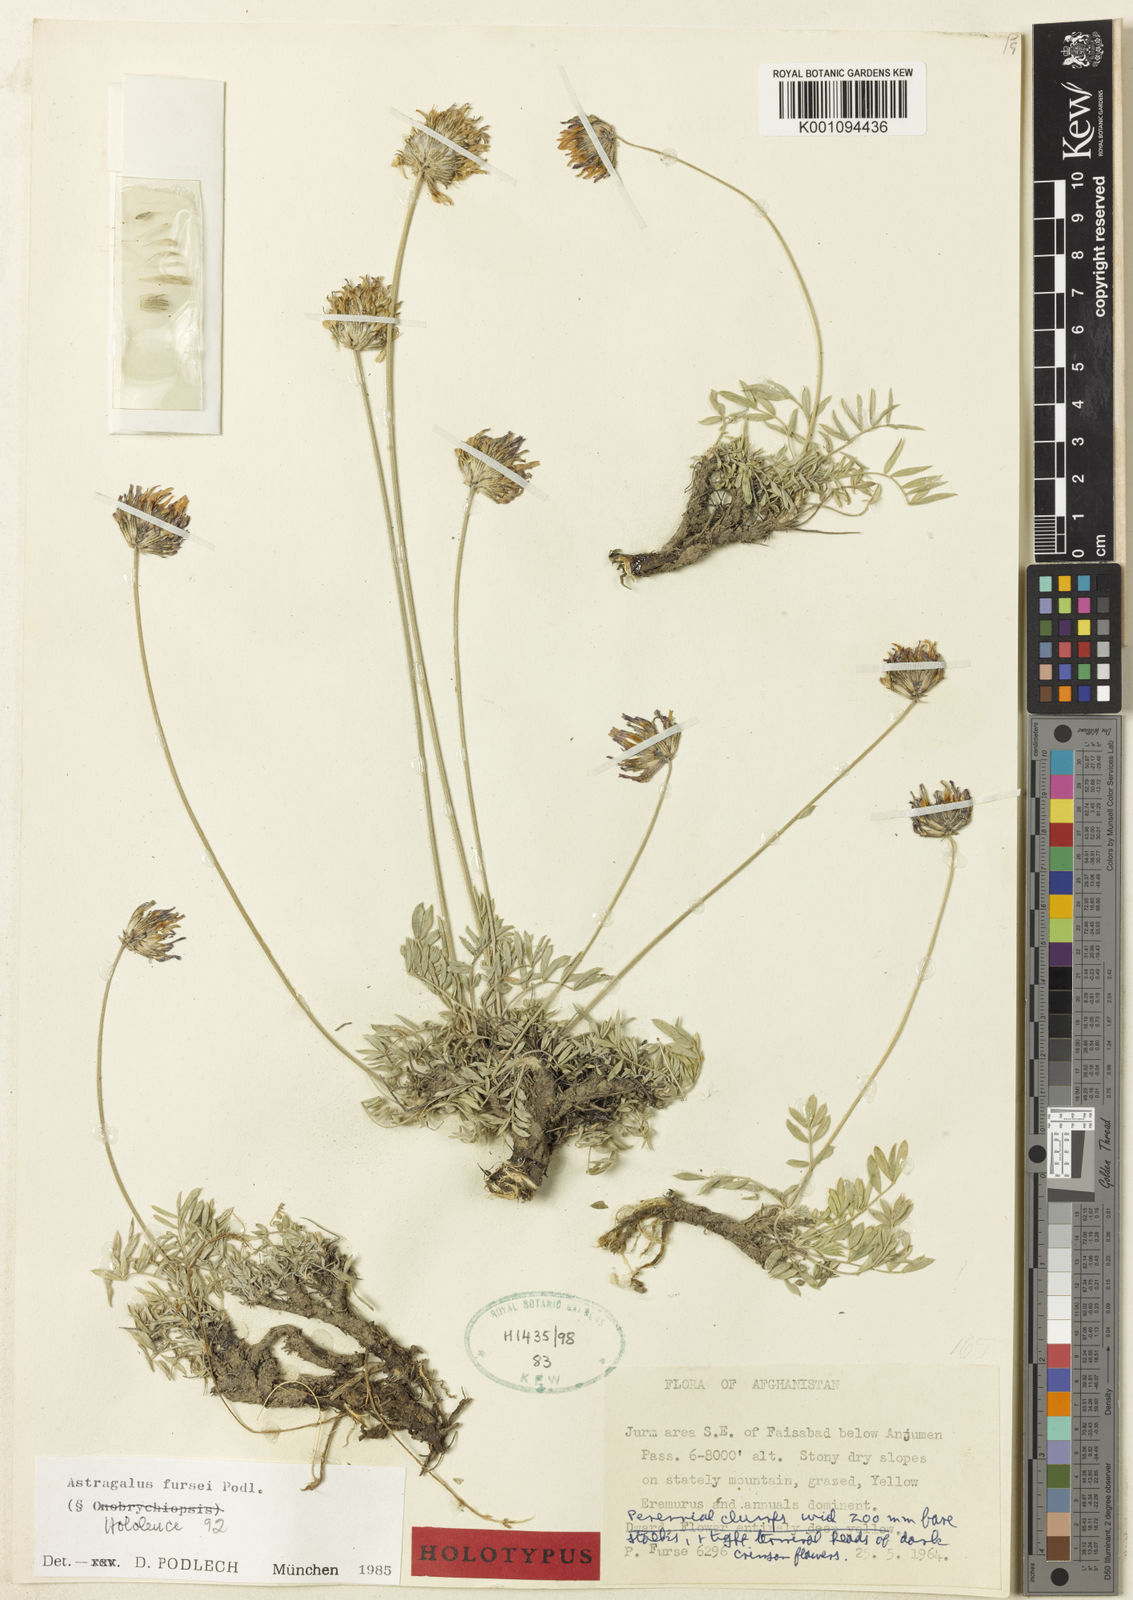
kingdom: Plantae
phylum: Tracheophyta
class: Magnoliopsida
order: Fabales
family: Fabaceae
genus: Astragalus
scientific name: Astragalus
